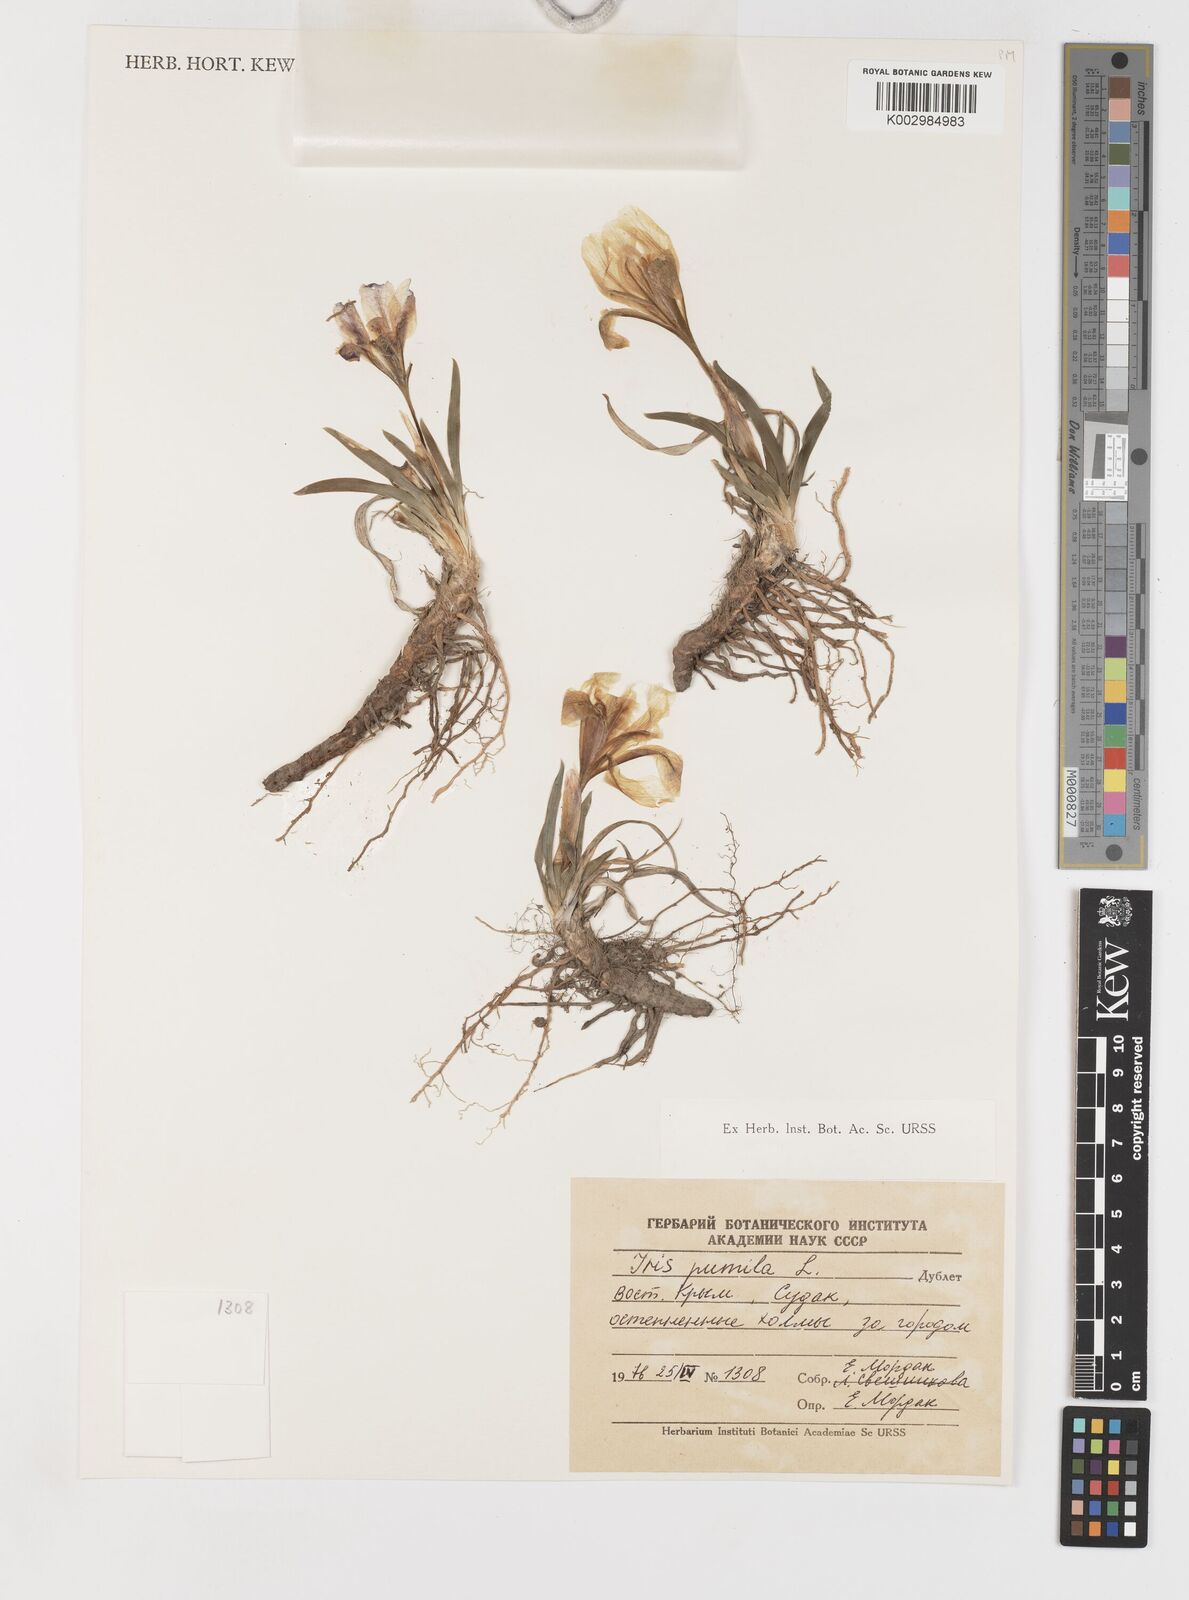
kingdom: Plantae
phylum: Tracheophyta
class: Liliopsida
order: Asparagales
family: Iridaceae
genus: Iris
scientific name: Iris pumila
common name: Dwarf iris
